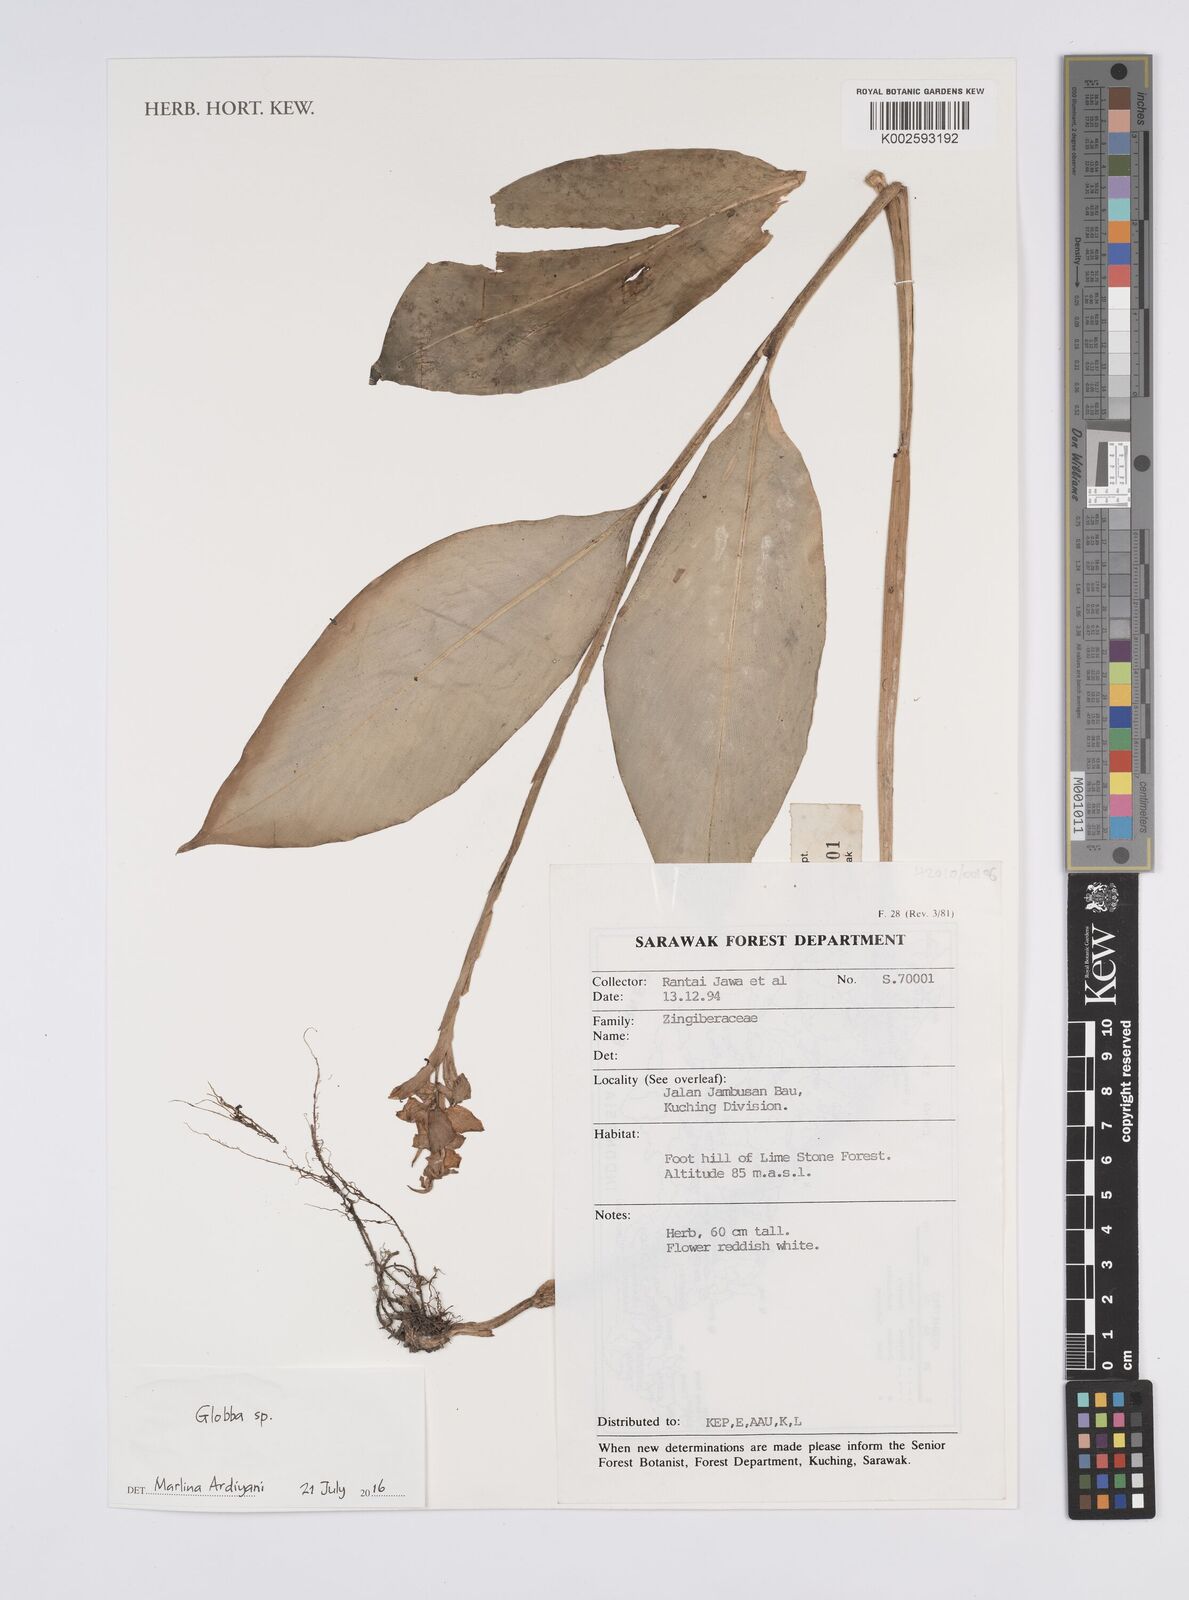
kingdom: Plantae
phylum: Tracheophyta
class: Liliopsida
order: Zingiberales
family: Zingiberaceae
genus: Globba
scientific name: Globba
